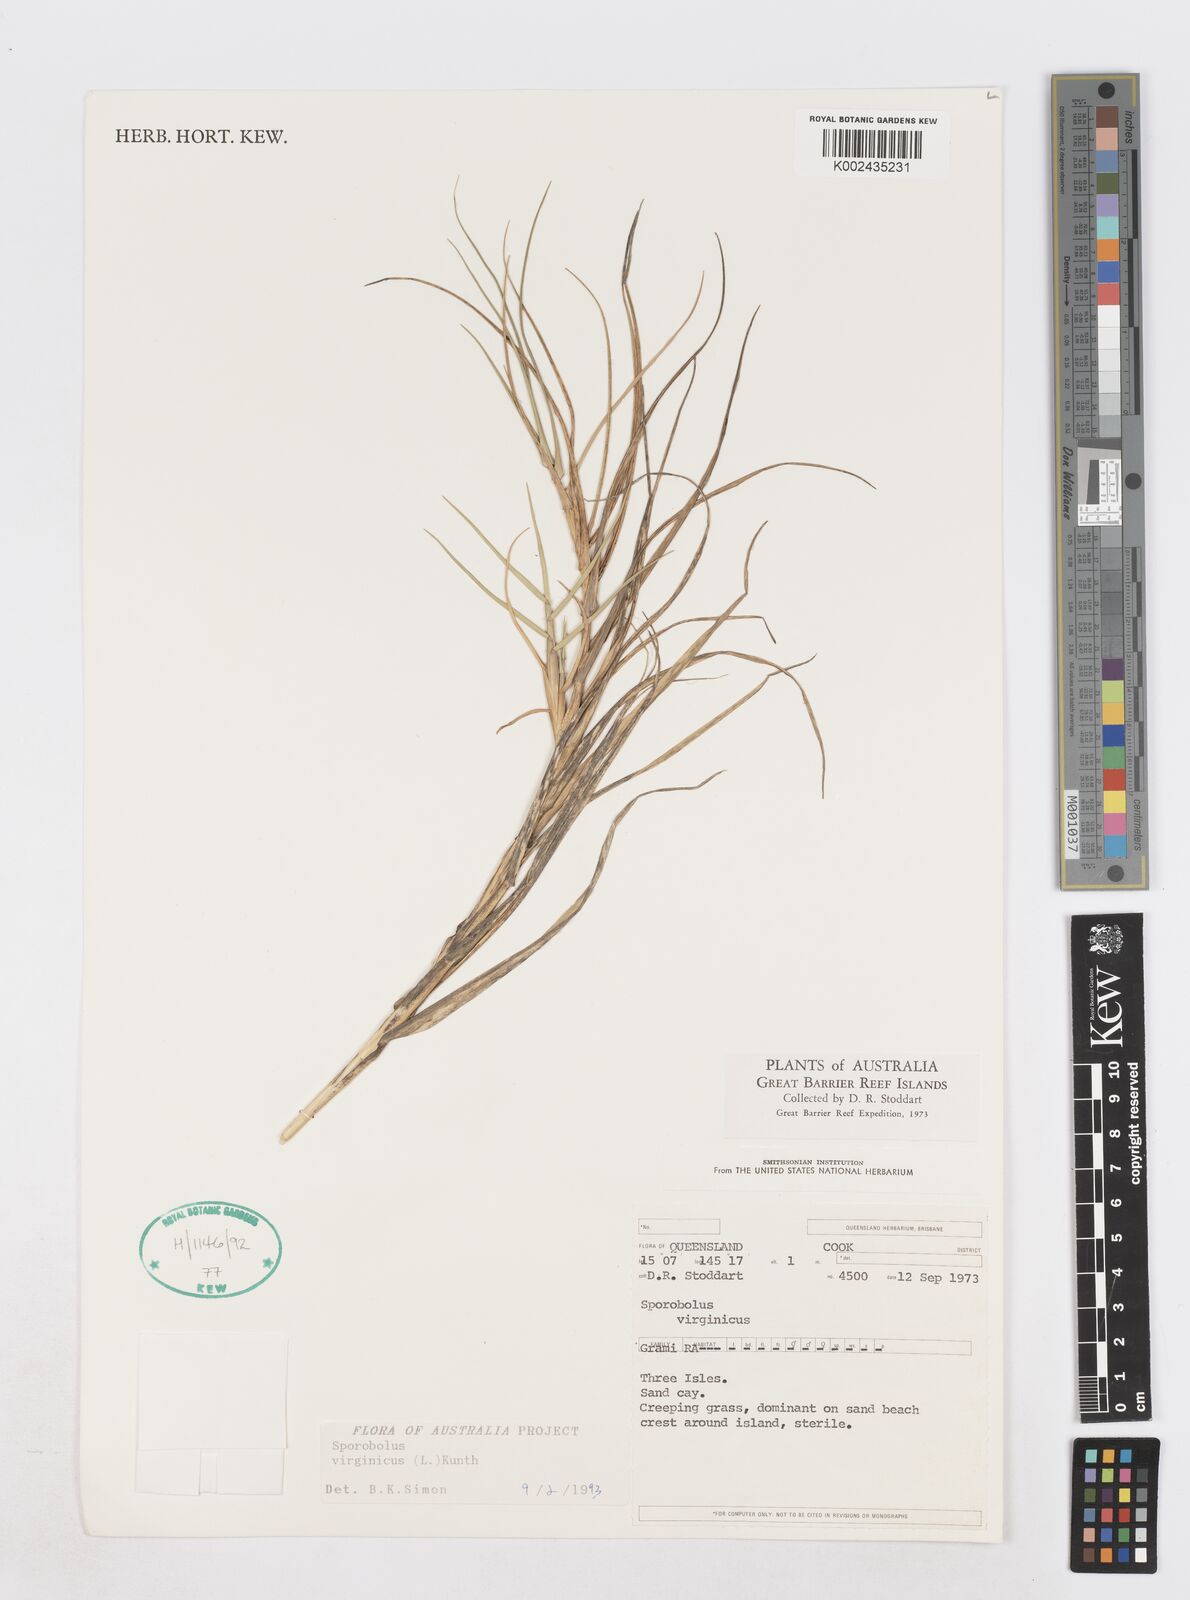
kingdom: Plantae
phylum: Tracheophyta
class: Liliopsida
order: Poales
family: Poaceae
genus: Sporobolus
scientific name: Sporobolus virginicus
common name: Beach dropseed
